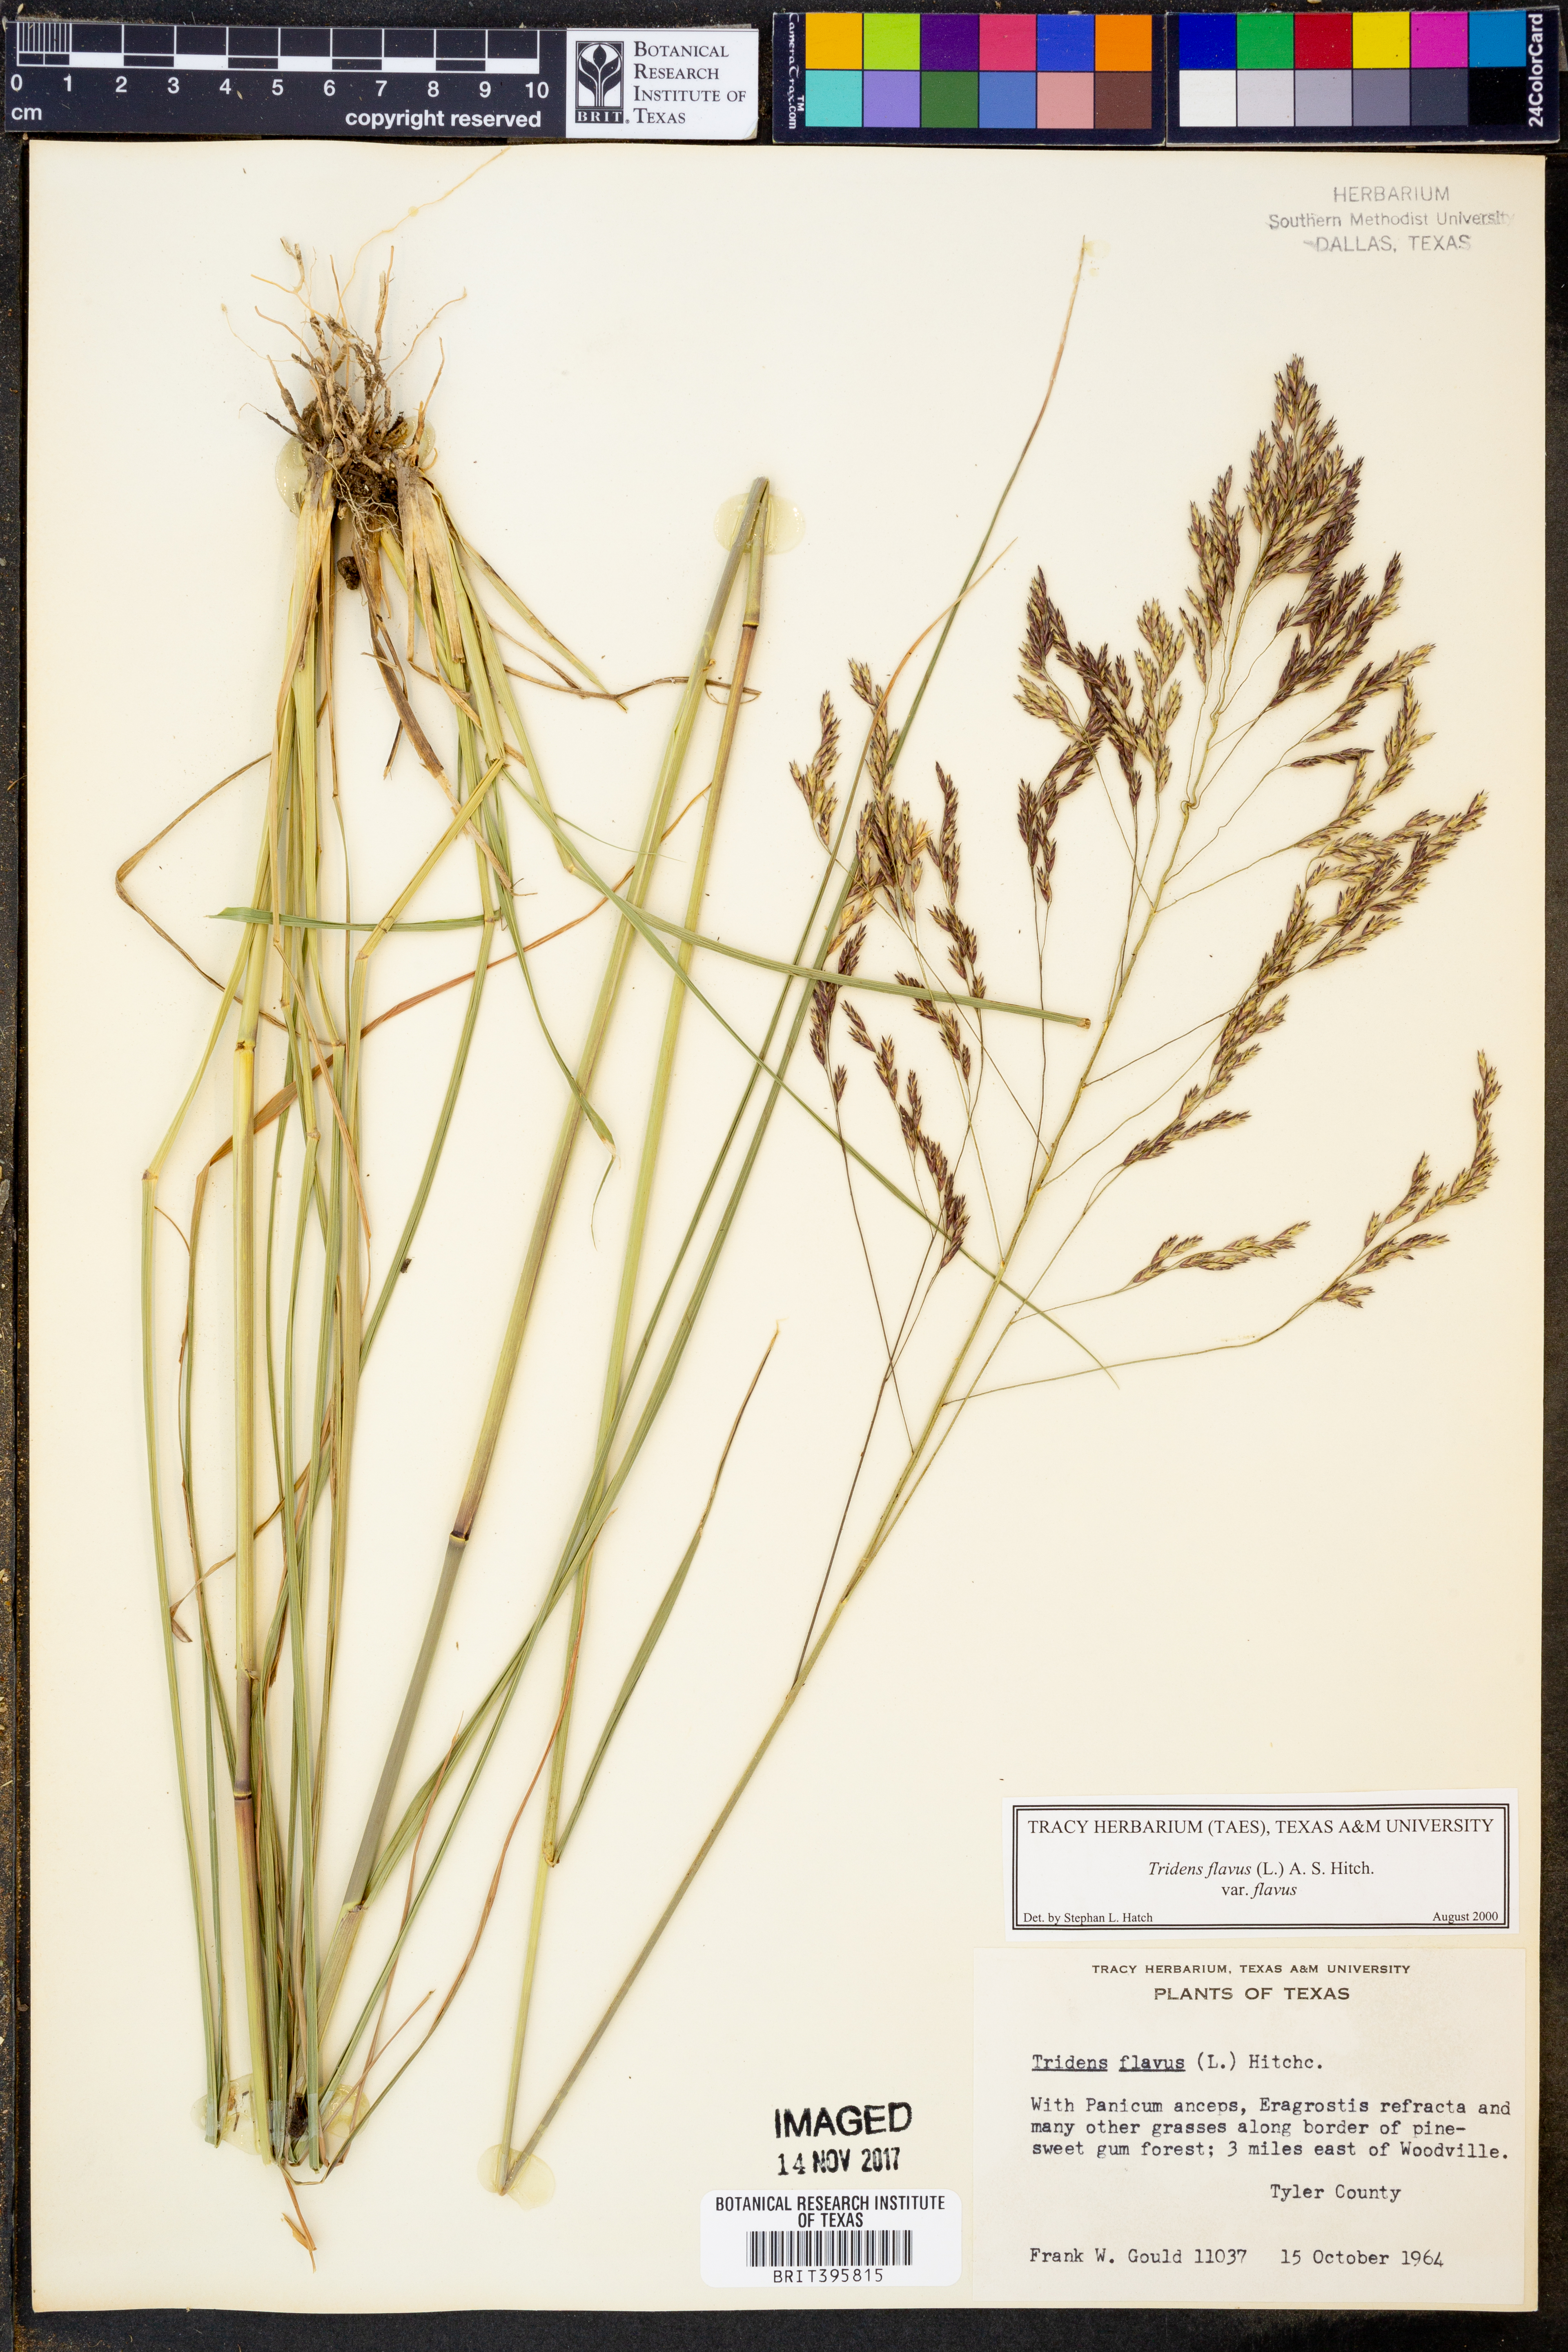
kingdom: Plantae
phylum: Tracheophyta
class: Liliopsida
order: Poales
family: Poaceae
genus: Tridens
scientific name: Tridens flavus
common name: Purpletop
